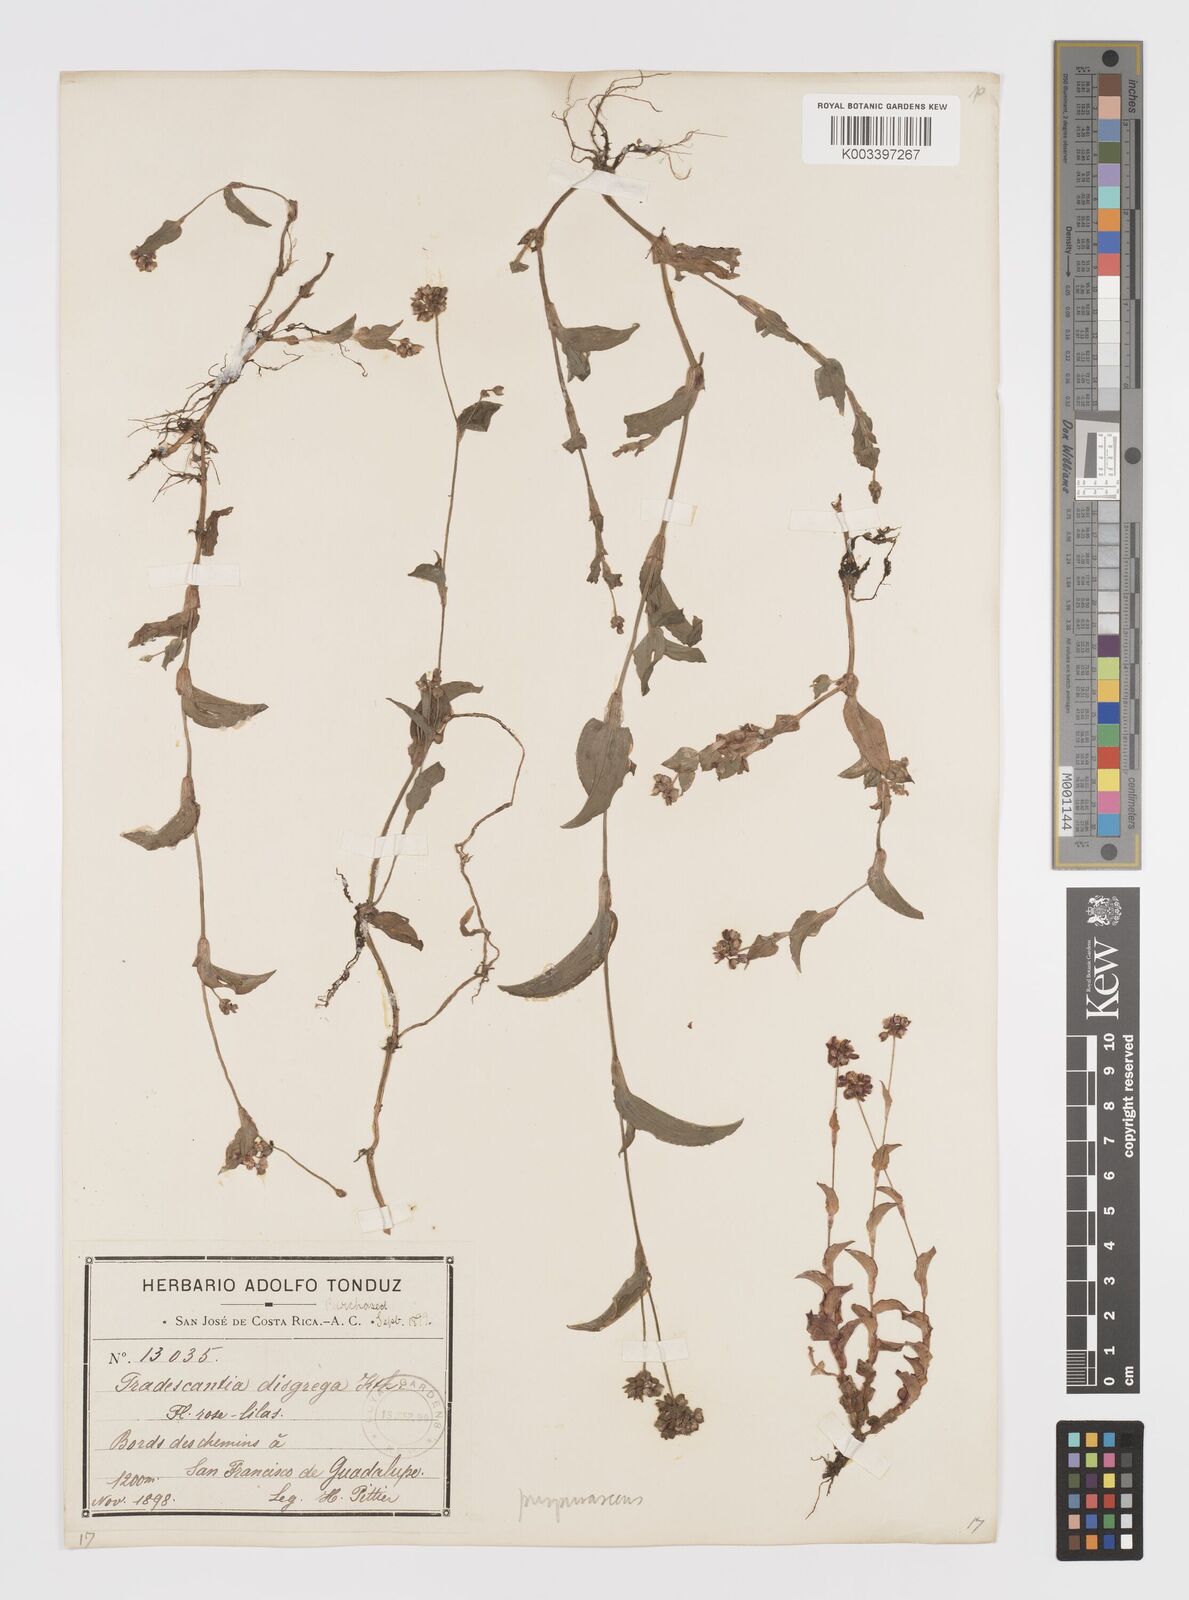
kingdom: Plantae
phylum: Tracheophyta
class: Liliopsida
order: Commelinales
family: Commelinaceae
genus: Callisia
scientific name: Callisia purpurascens
